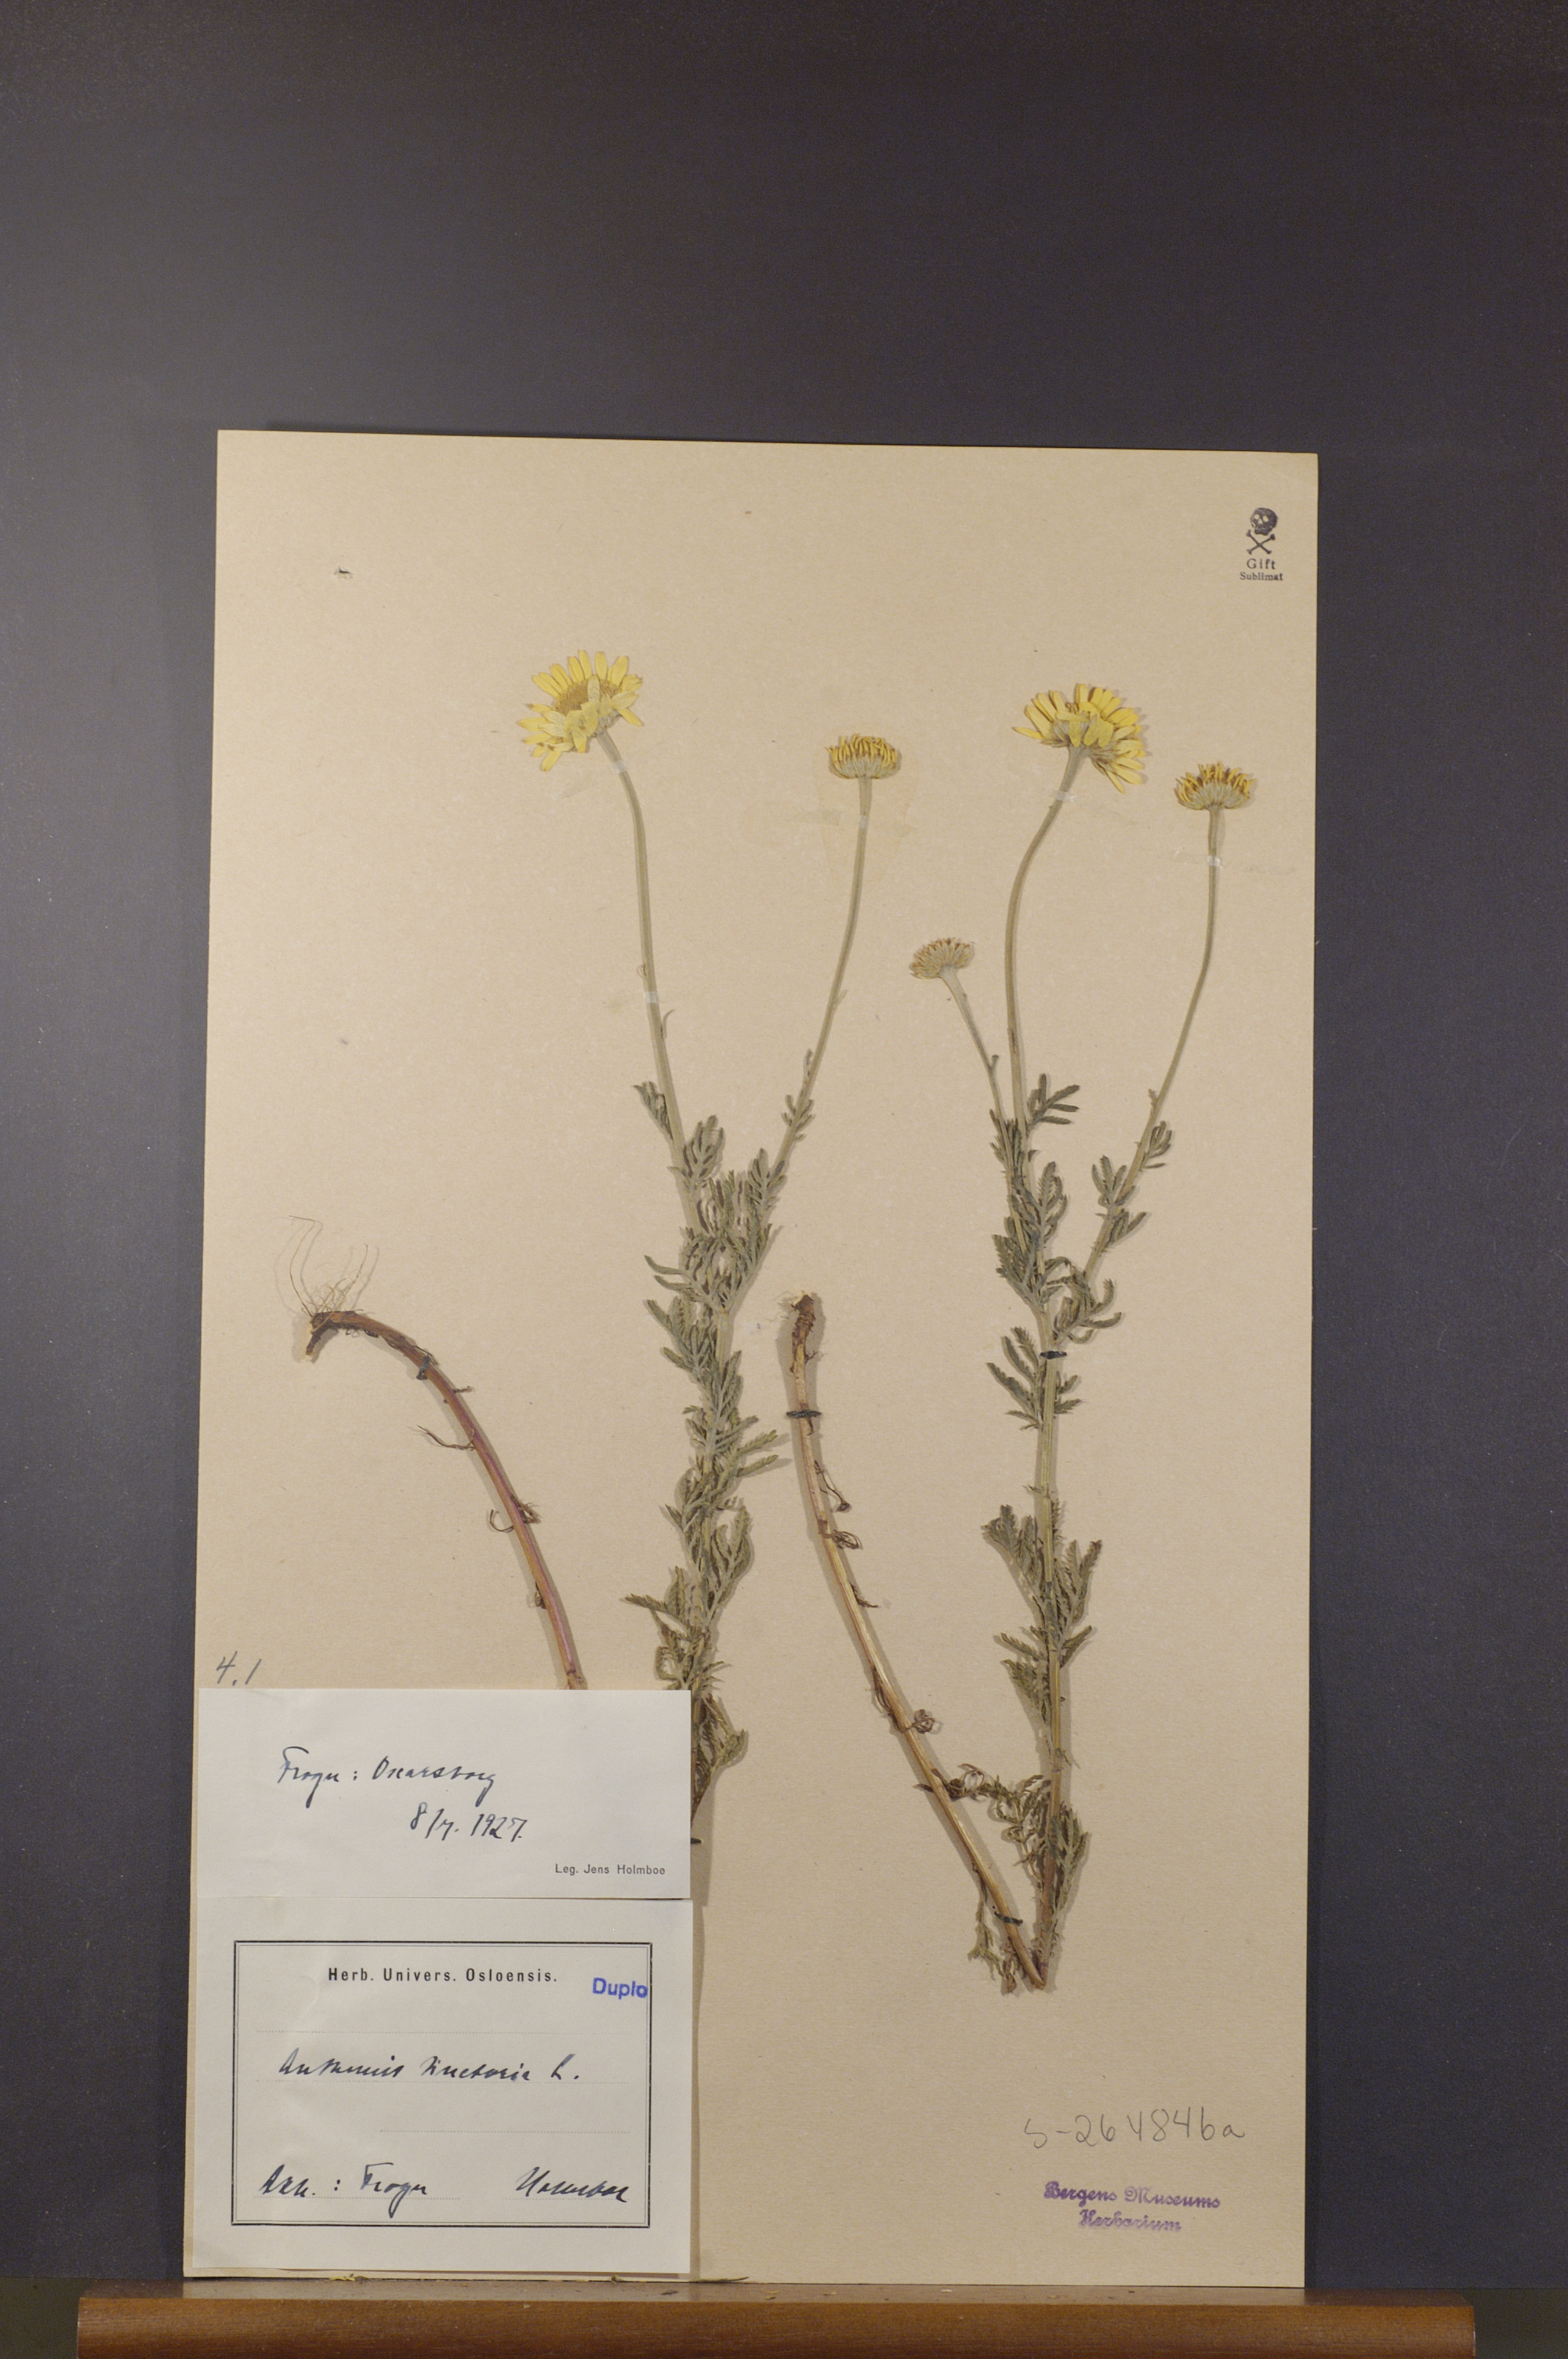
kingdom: Plantae
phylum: Tracheophyta
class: Magnoliopsida
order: Asterales
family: Asteraceae
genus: Cota
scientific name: Cota tinctoria
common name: Golden chamomile
